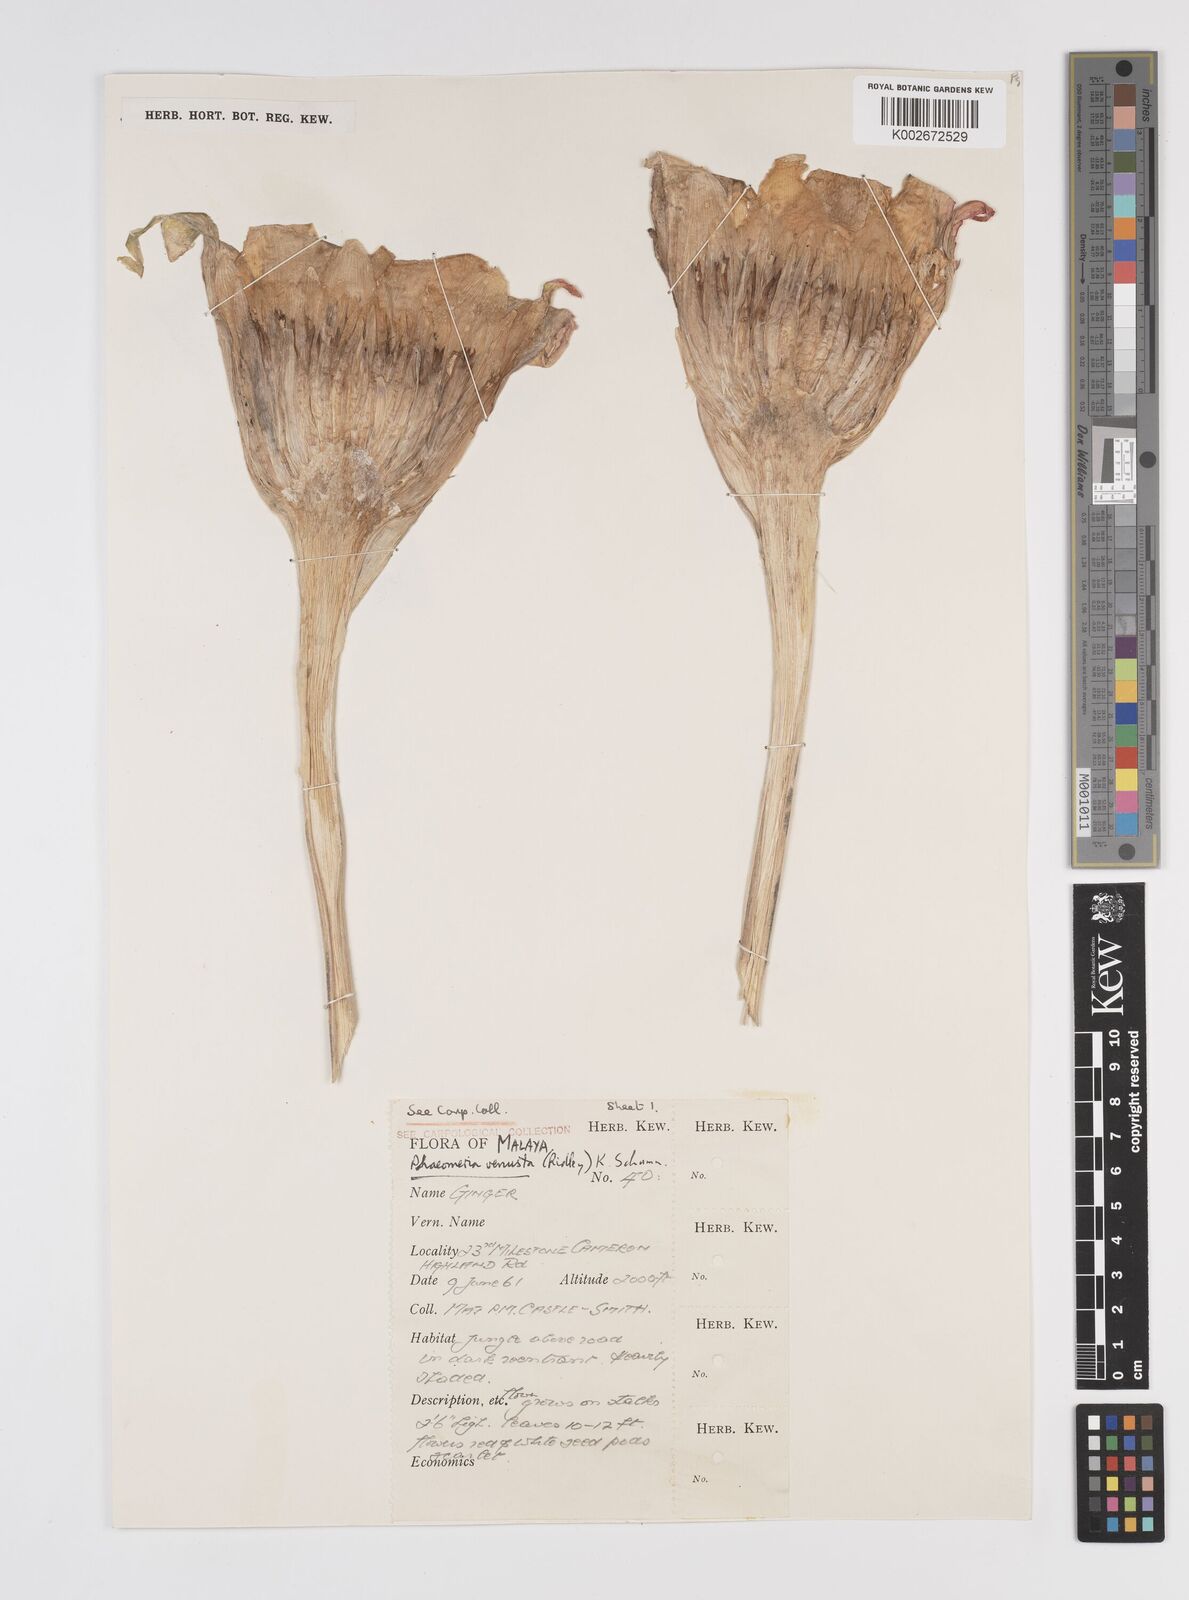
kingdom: Plantae
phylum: Tracheophyta
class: Liliopsida
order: Zingiberales
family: Zingiberaceae
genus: Etlingera
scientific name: Etlingera venusta
